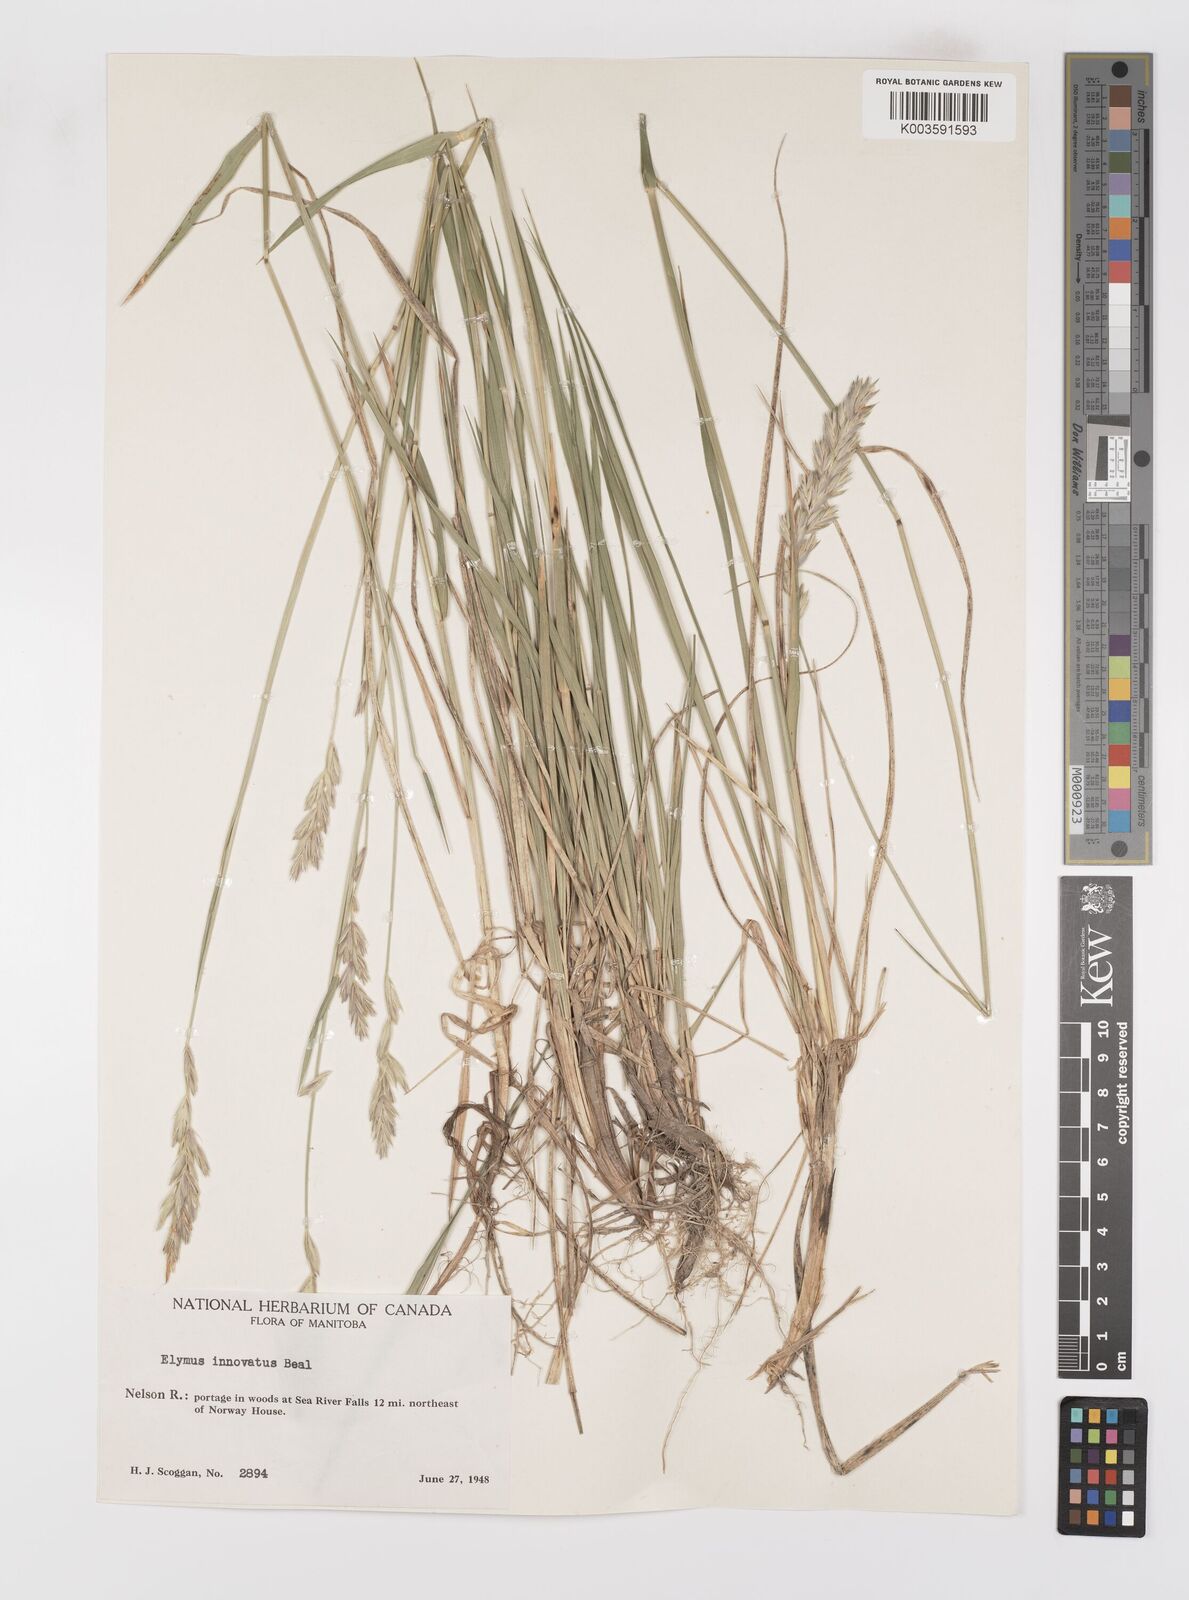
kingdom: Plantae
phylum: Tracheophyta
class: Liliopsida
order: Poales
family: Poaceae
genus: Leymus
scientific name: Leymus innovatus
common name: Boreal wild rye
